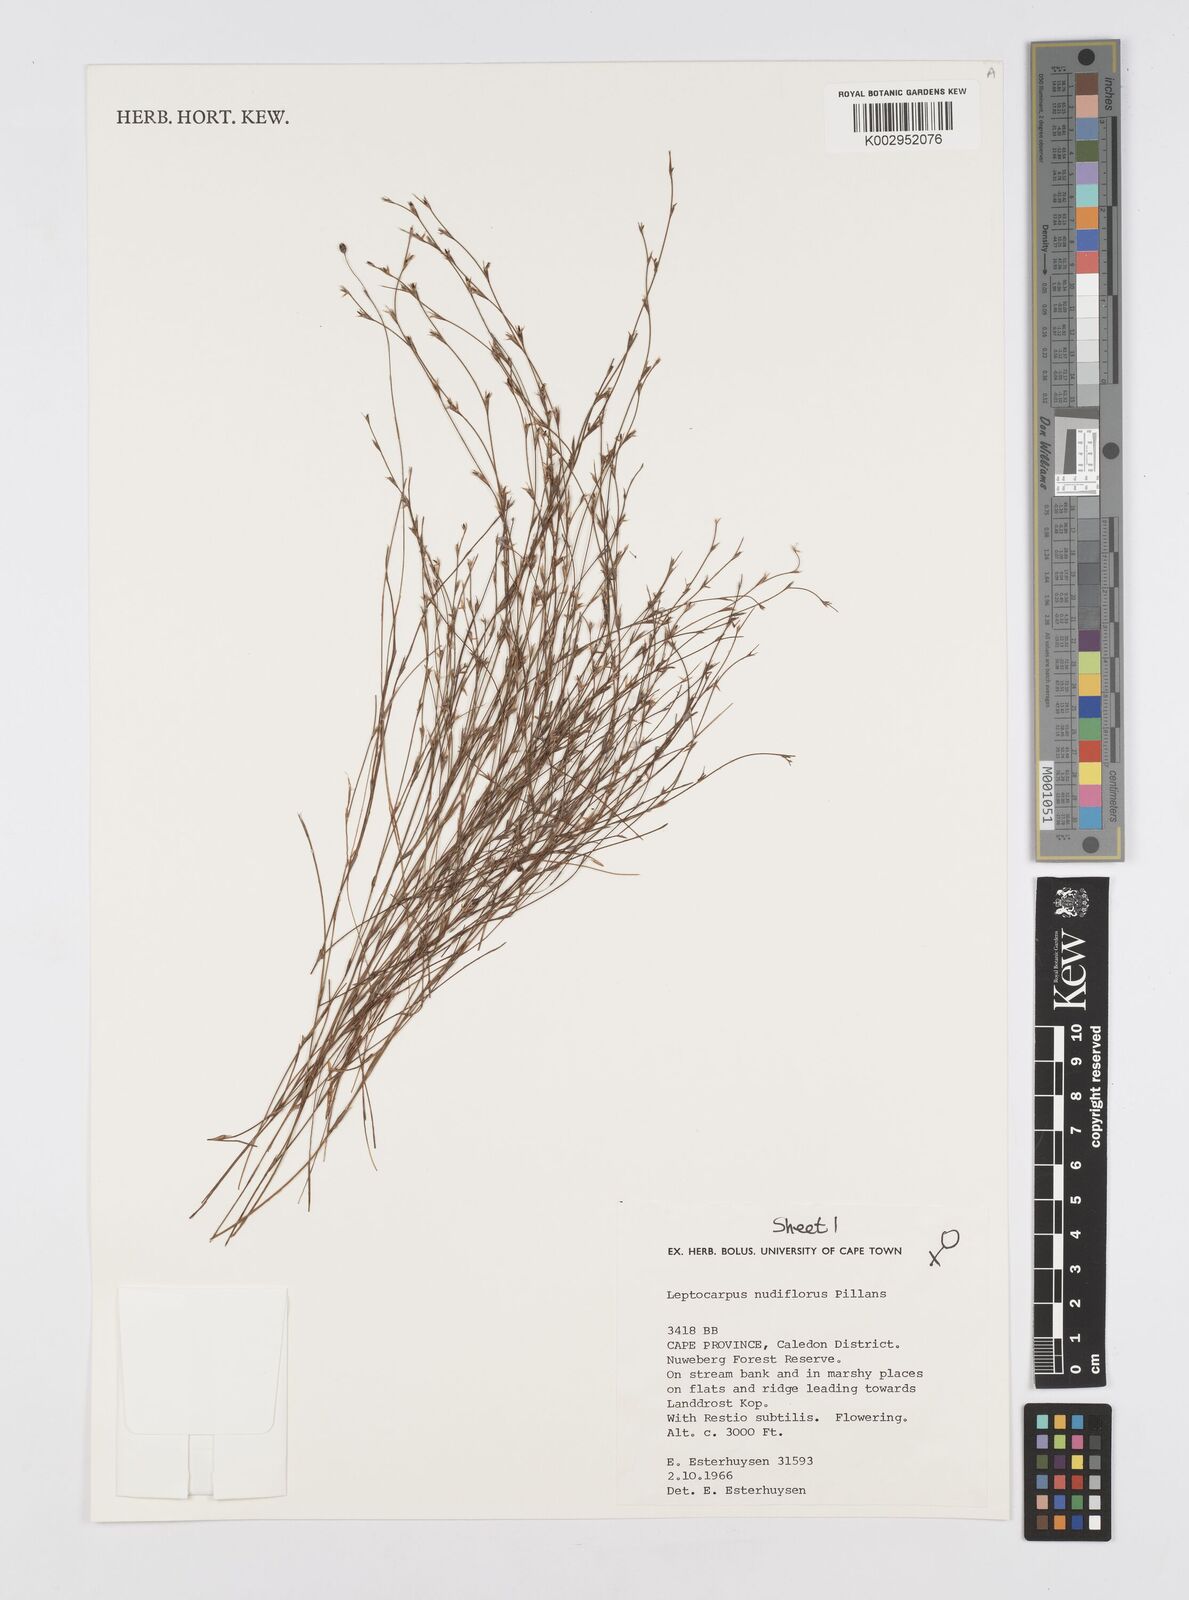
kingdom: Plantae
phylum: Tracheophyta
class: Liliopsida
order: Poales
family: Restionaceae
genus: Restio
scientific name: Restio nudiflorus
